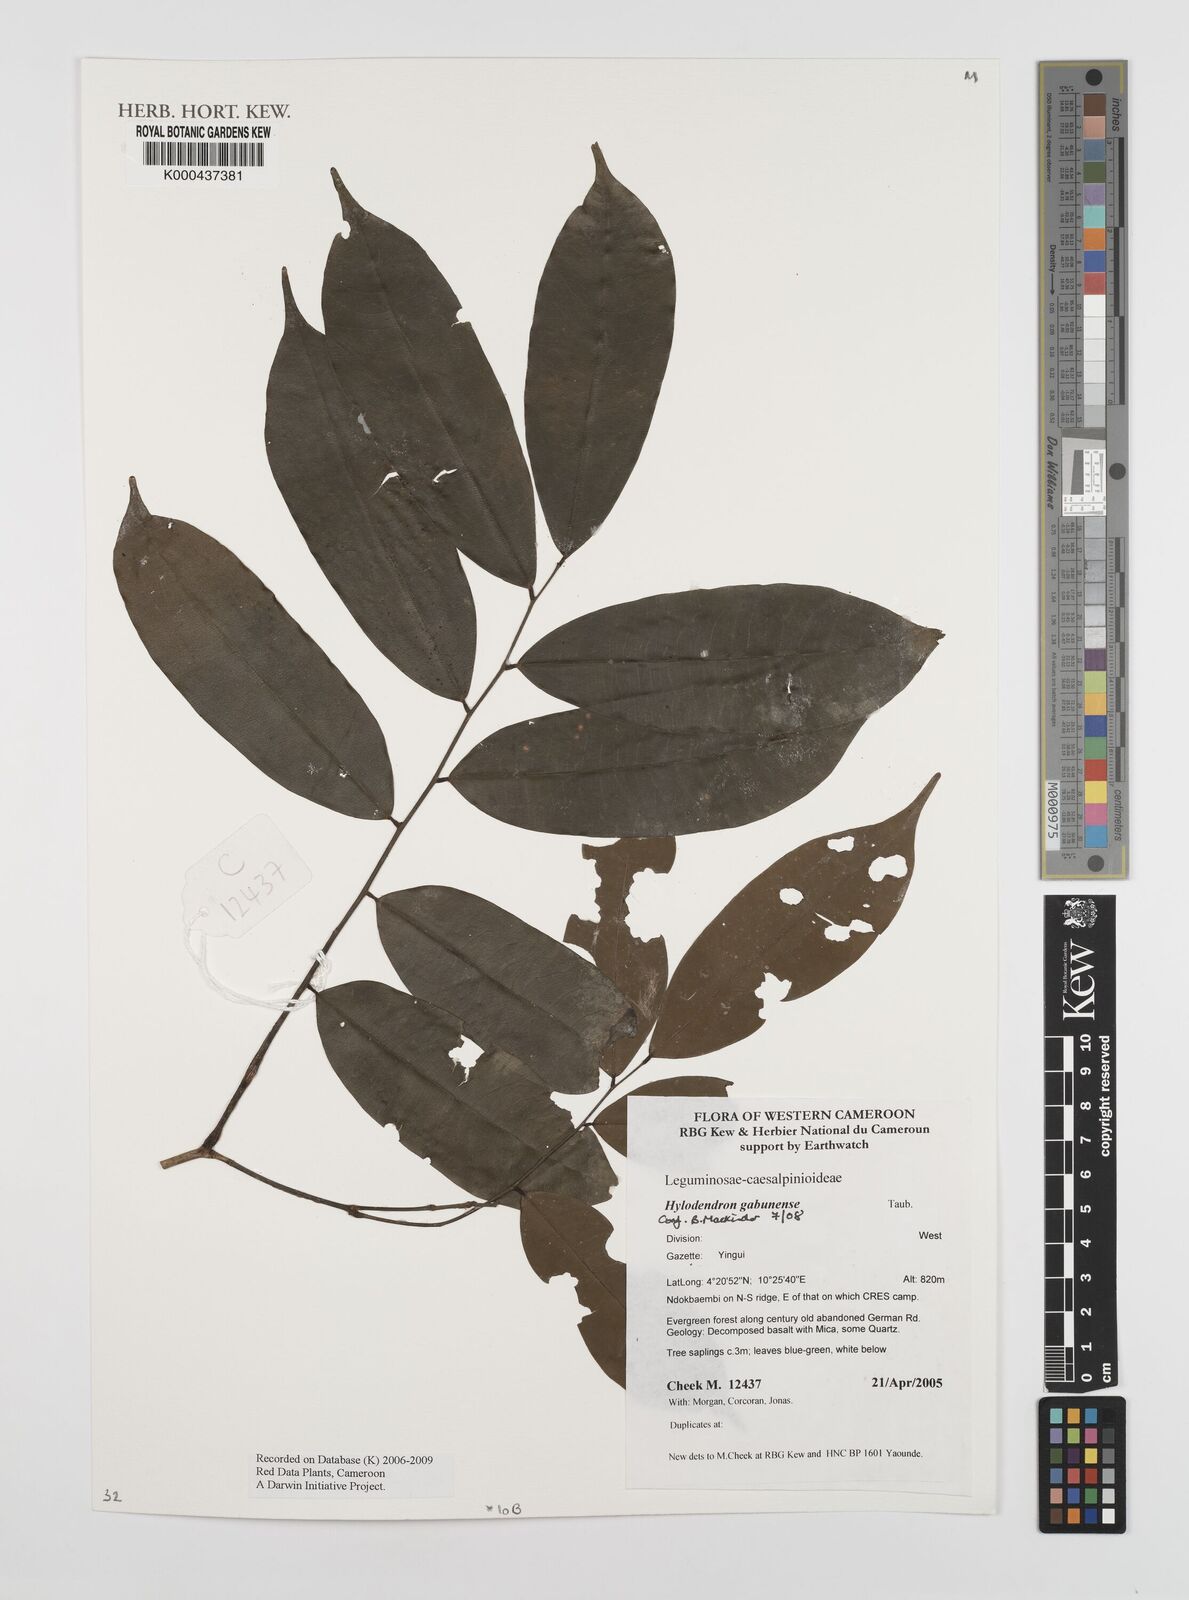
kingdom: Plantae
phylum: Tracheophyta
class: Magnoliopsida
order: Fabales
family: Fabaceae
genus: Hylodendron
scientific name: Hylodendron gabunense
